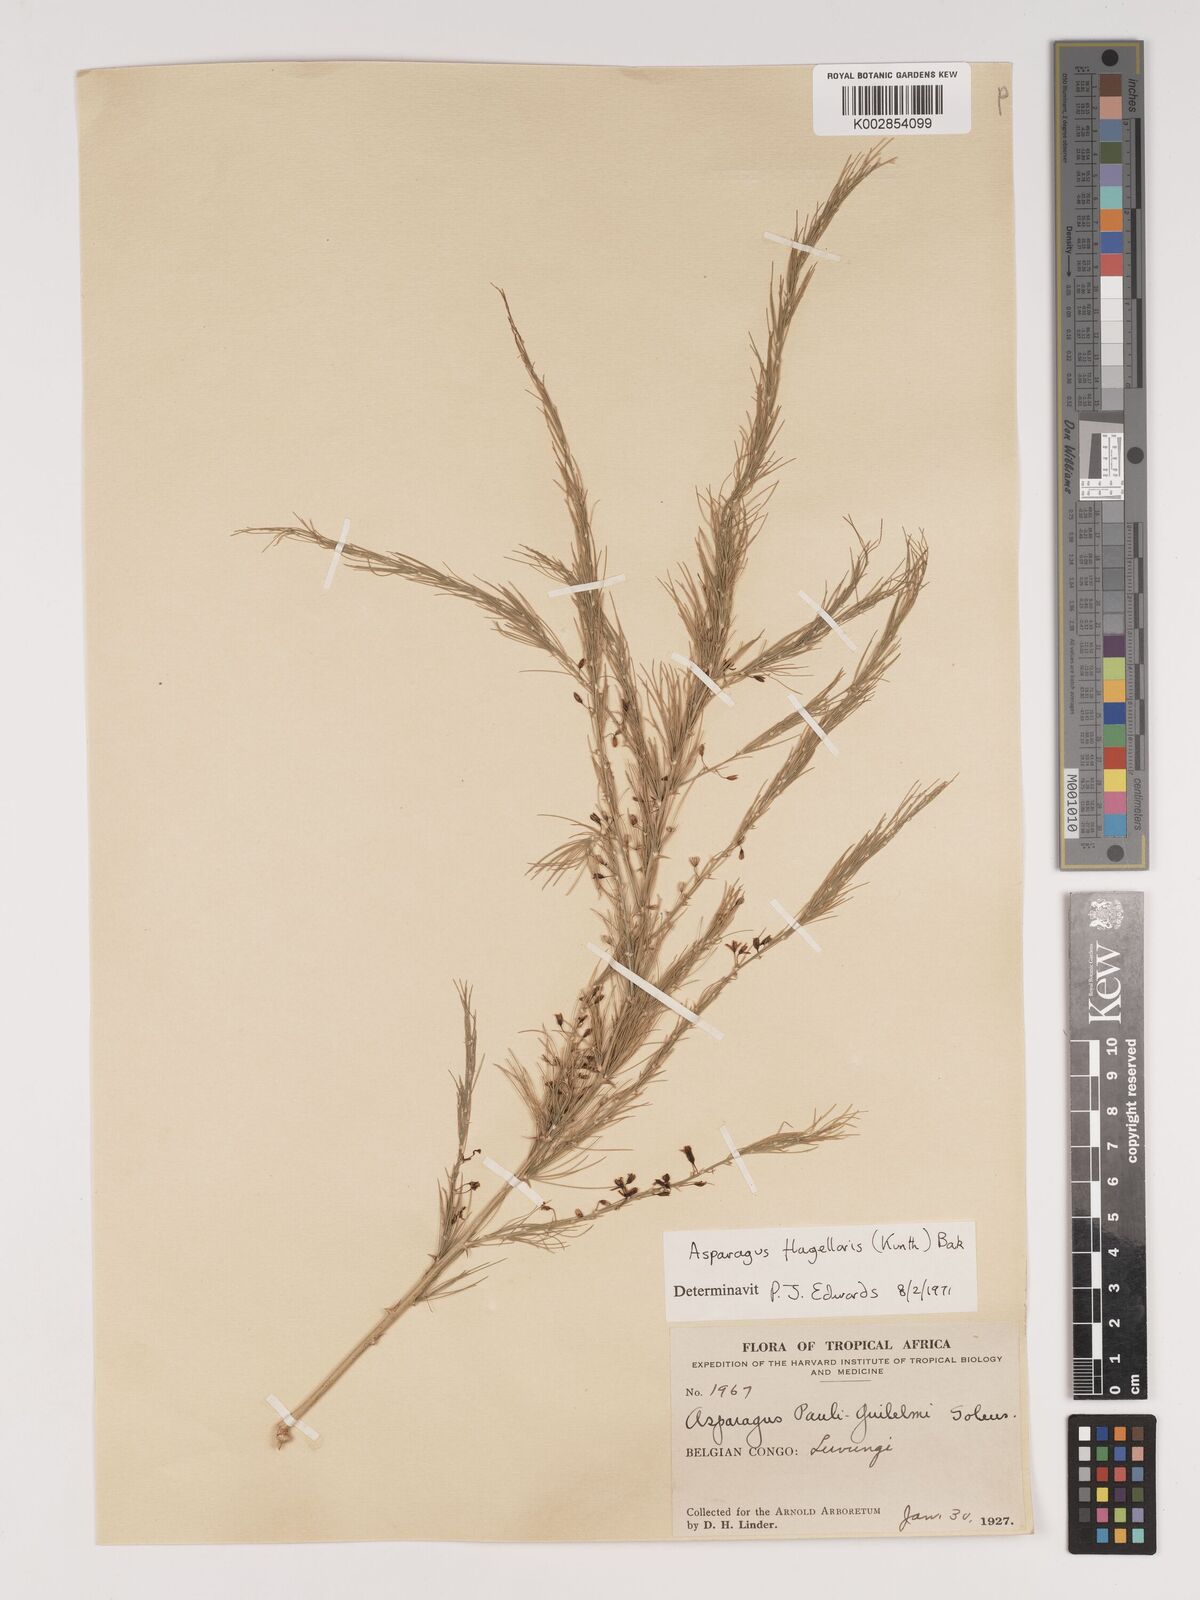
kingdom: Plantae
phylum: Tracheophyta
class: Liliopsida
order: Asparagales
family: Asparagaceae
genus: Asparagus
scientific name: Asparagus flagellaris
